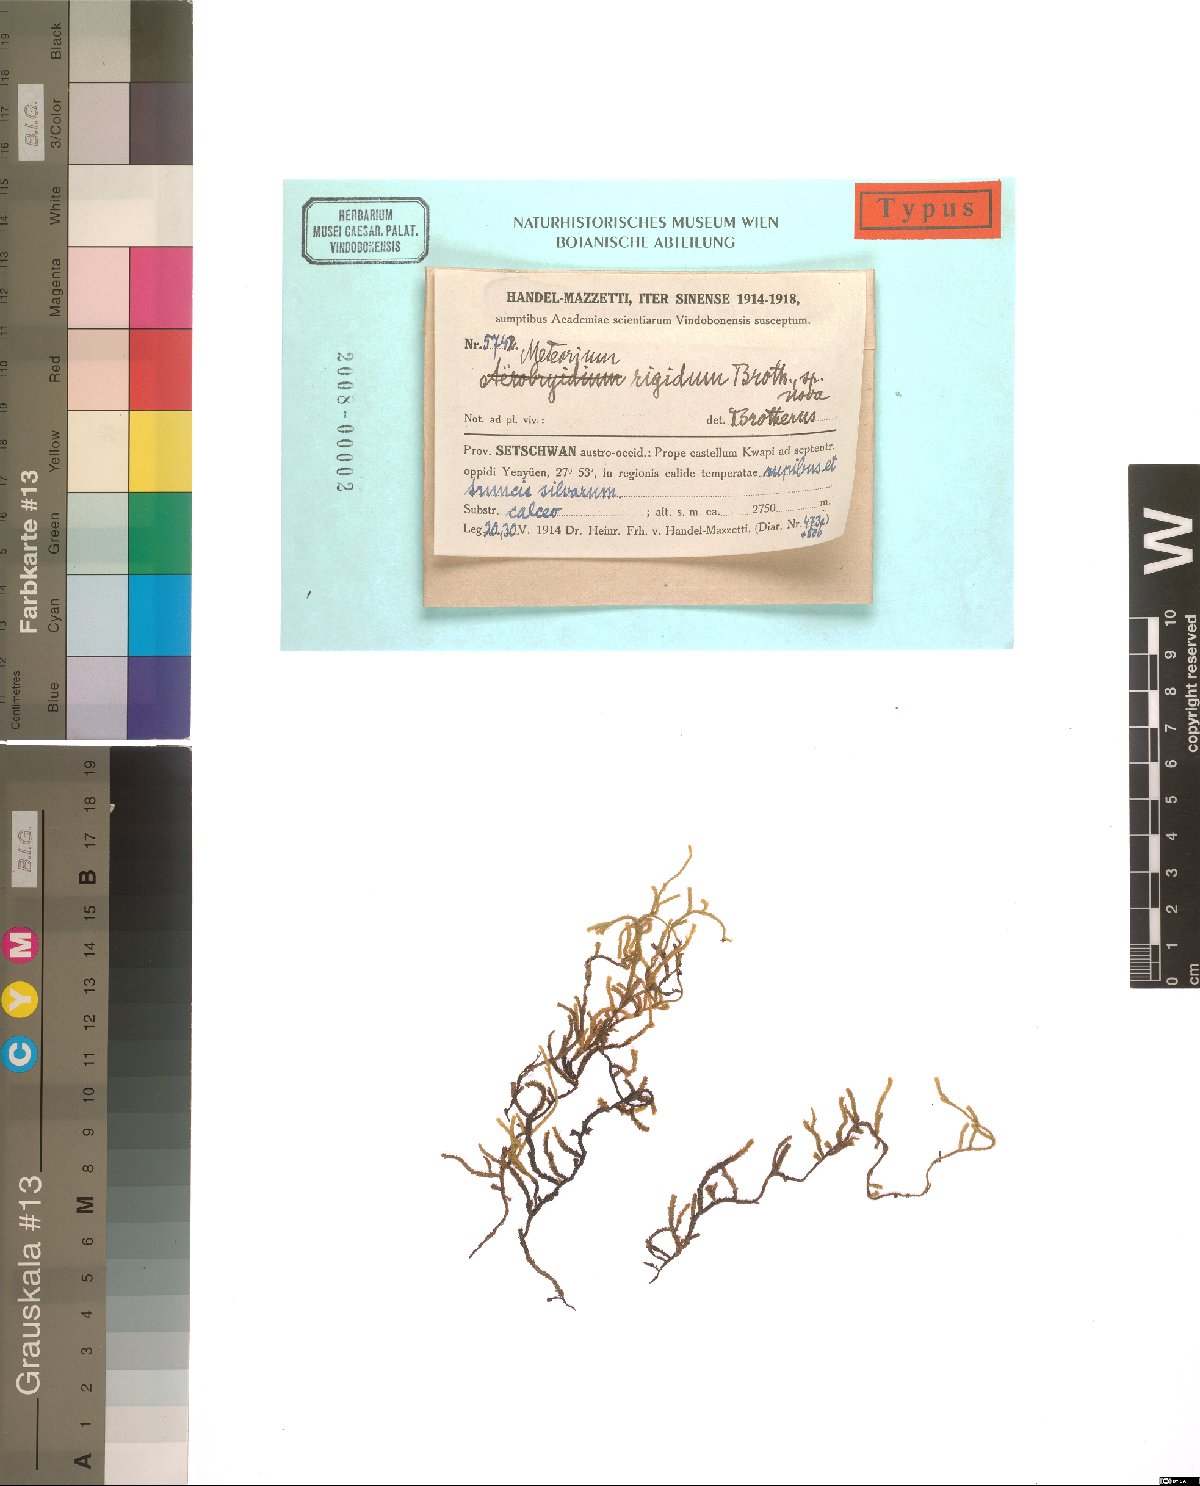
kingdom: Plantae
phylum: Bryophyta
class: Bryopsida
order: Hypnales
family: Meteoriaceae
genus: Meteorium
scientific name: Meteorium buchananii
